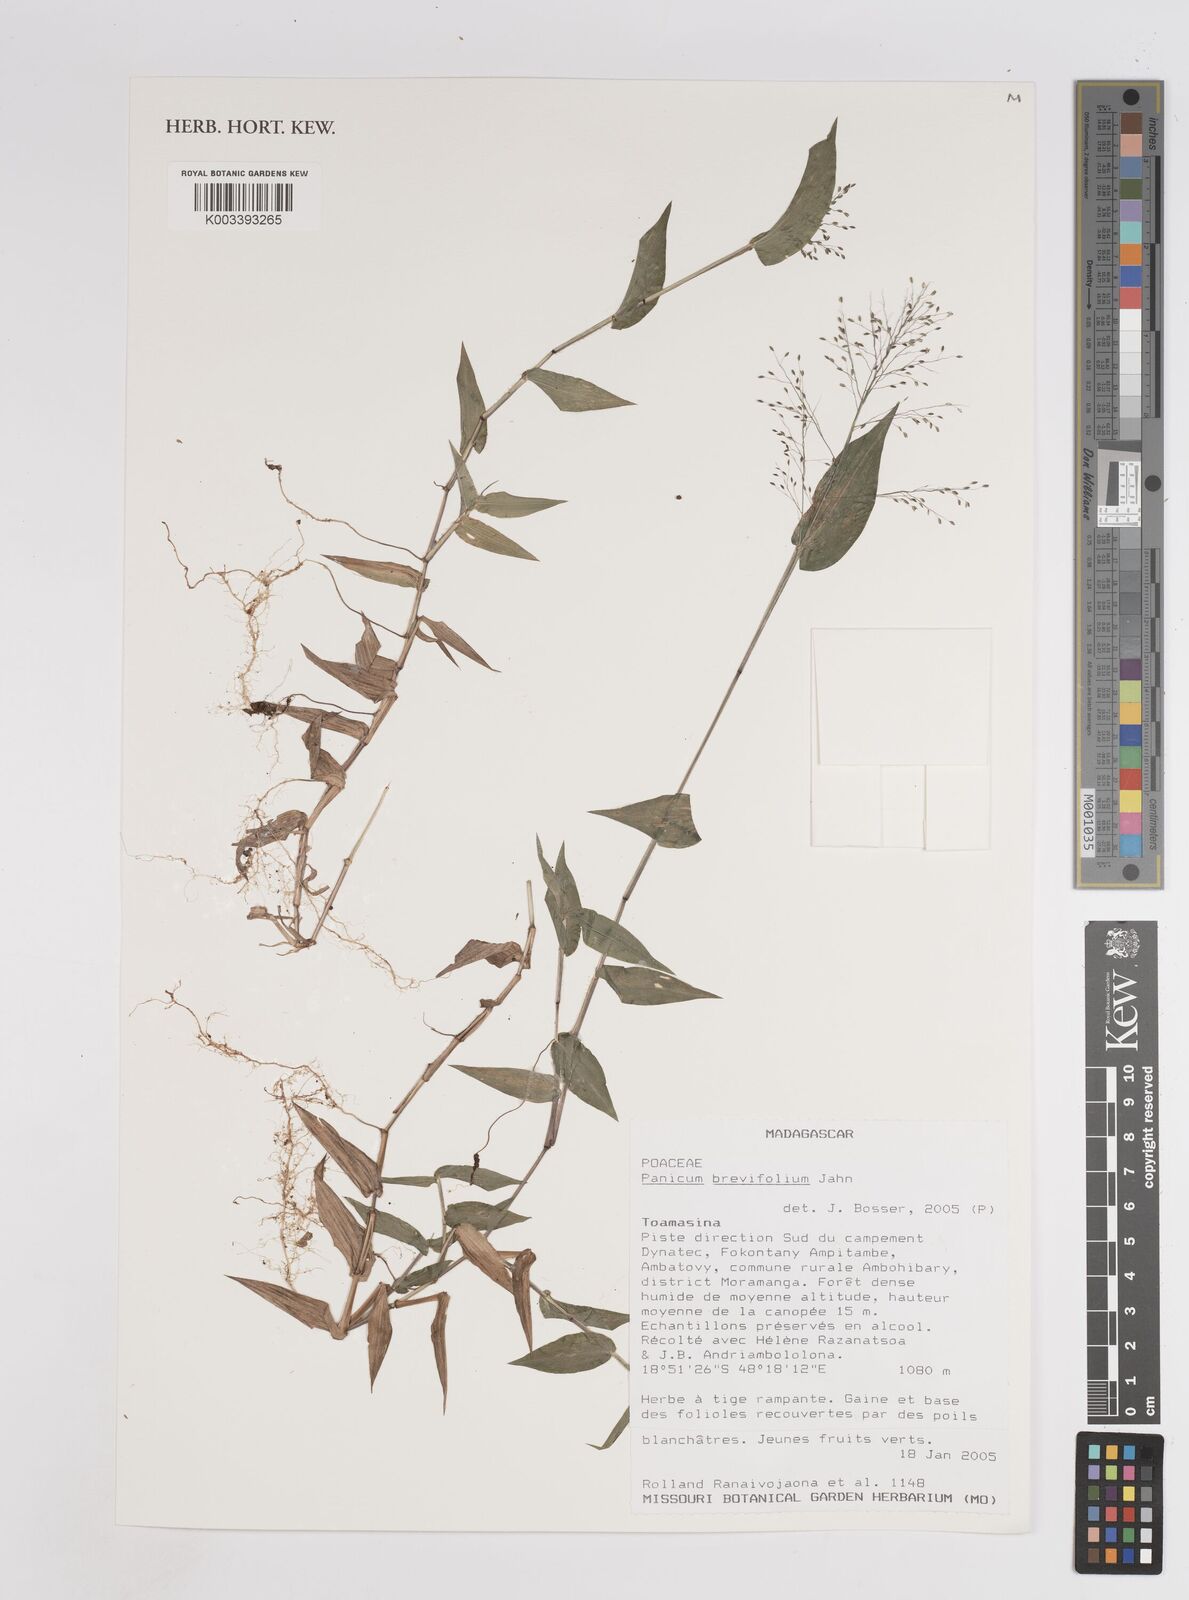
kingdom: Plantae
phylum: Tracheophyta
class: Liliopsida
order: Poales
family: Poaceae
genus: Panicum
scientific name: Panicum brevifolium
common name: Shortleaf panic grass
